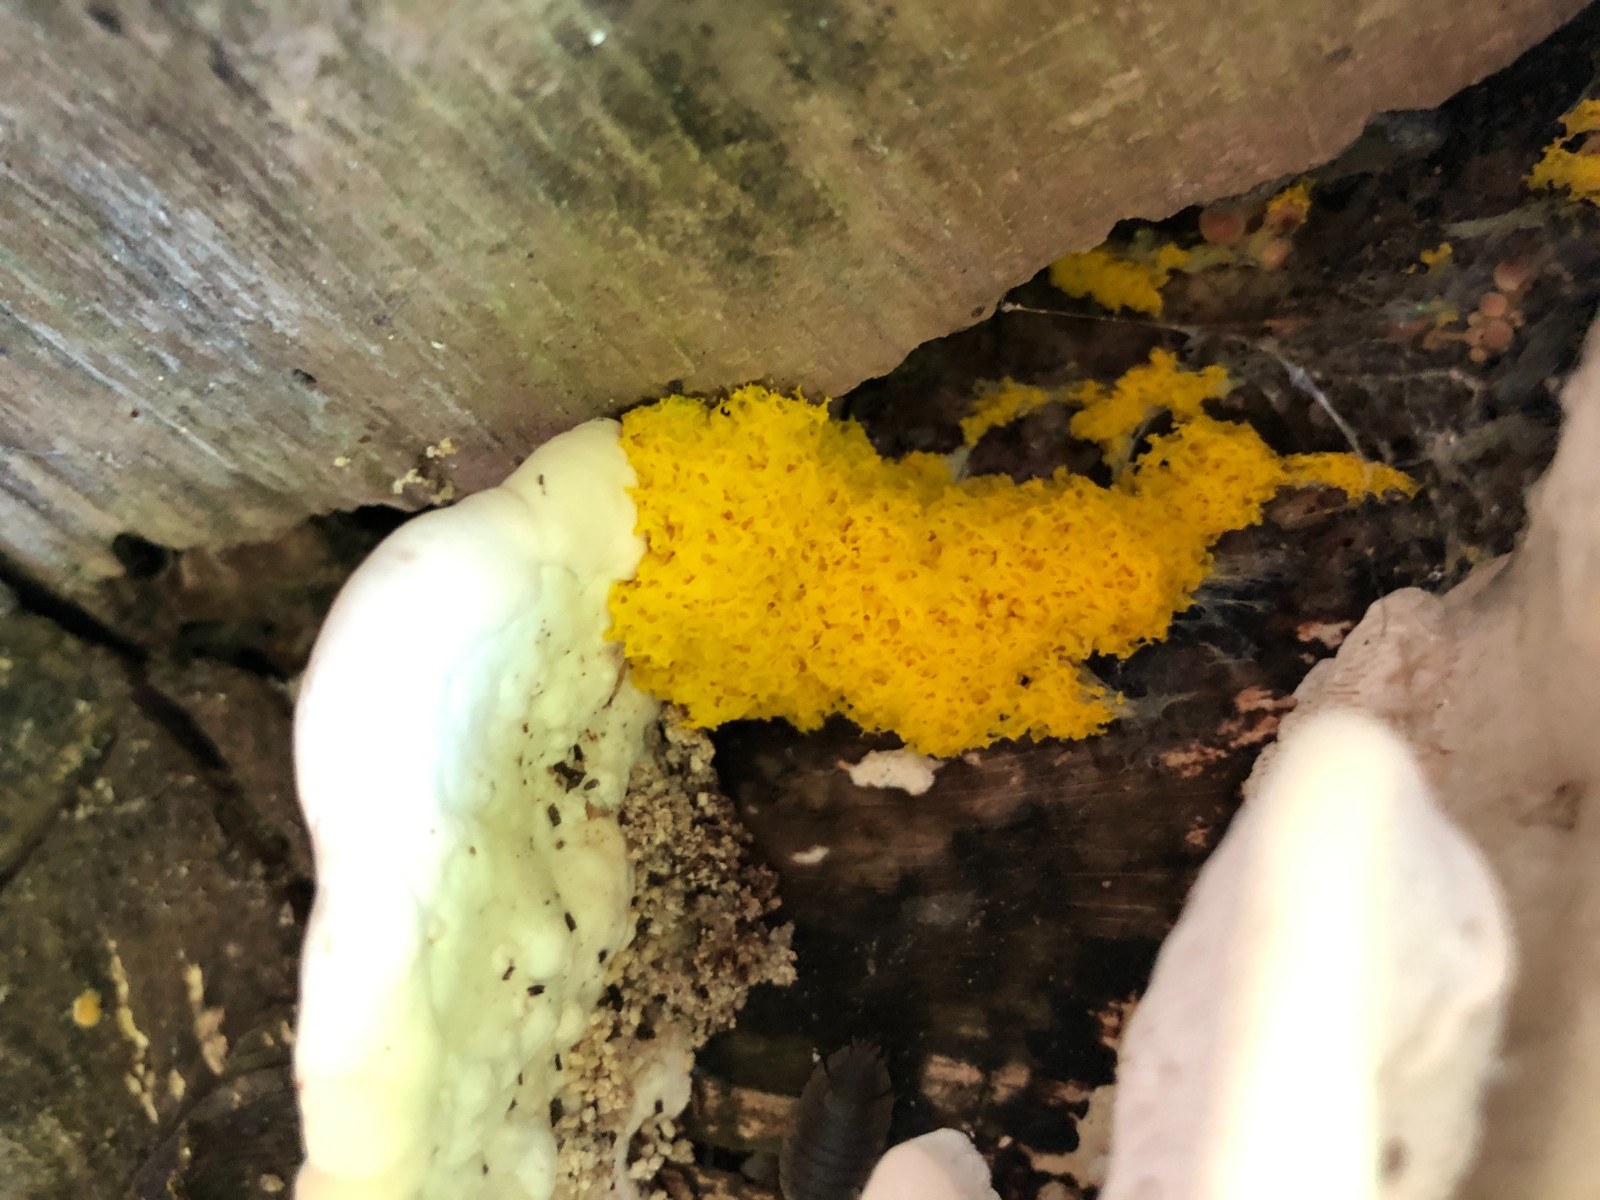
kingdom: Protozoa
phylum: Mycetozoa
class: Myxomycetes
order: Physarales
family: Physaraceae
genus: Fuligo
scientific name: Fuligo septica
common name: gul troldsmør
